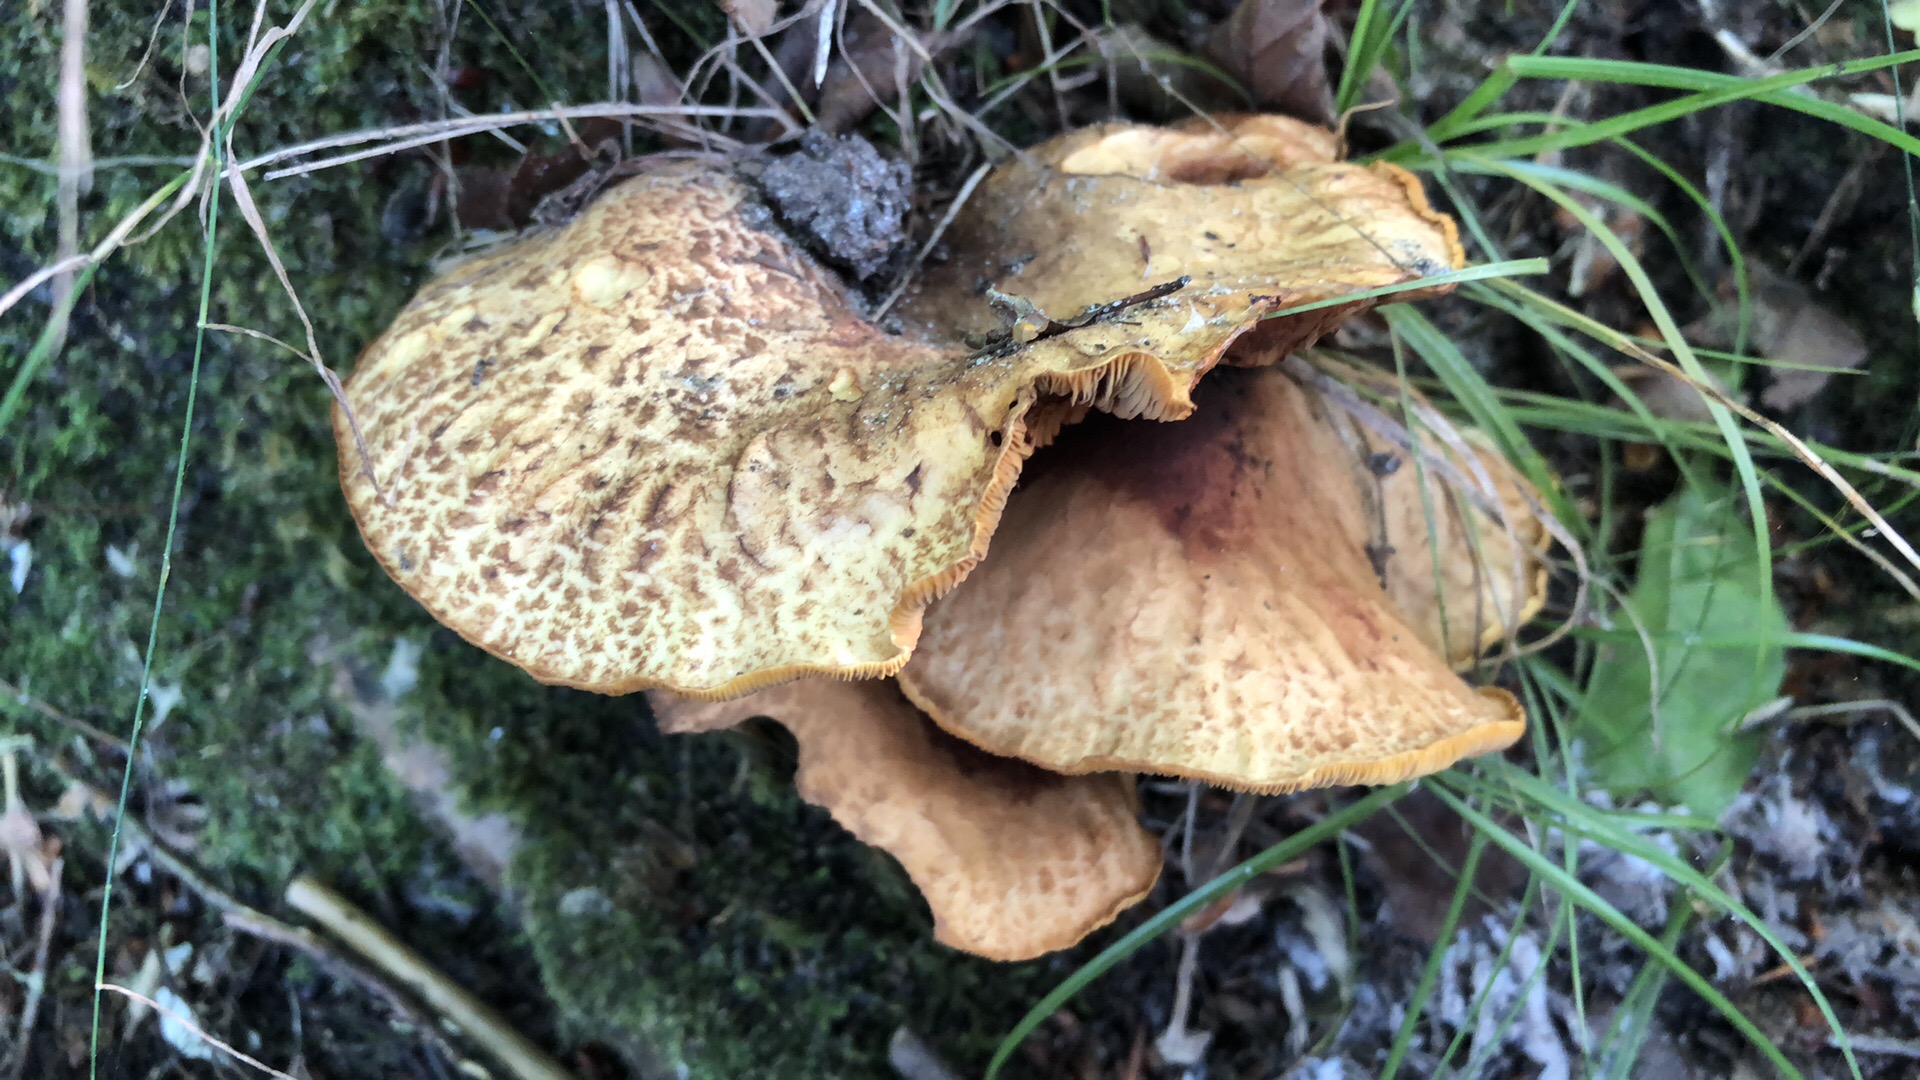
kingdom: Fungi
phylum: Basidiomycota
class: Agaricomycetes
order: Boletales
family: Paxillaceae
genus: Paxillus
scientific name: Paxillus rubicundulus
